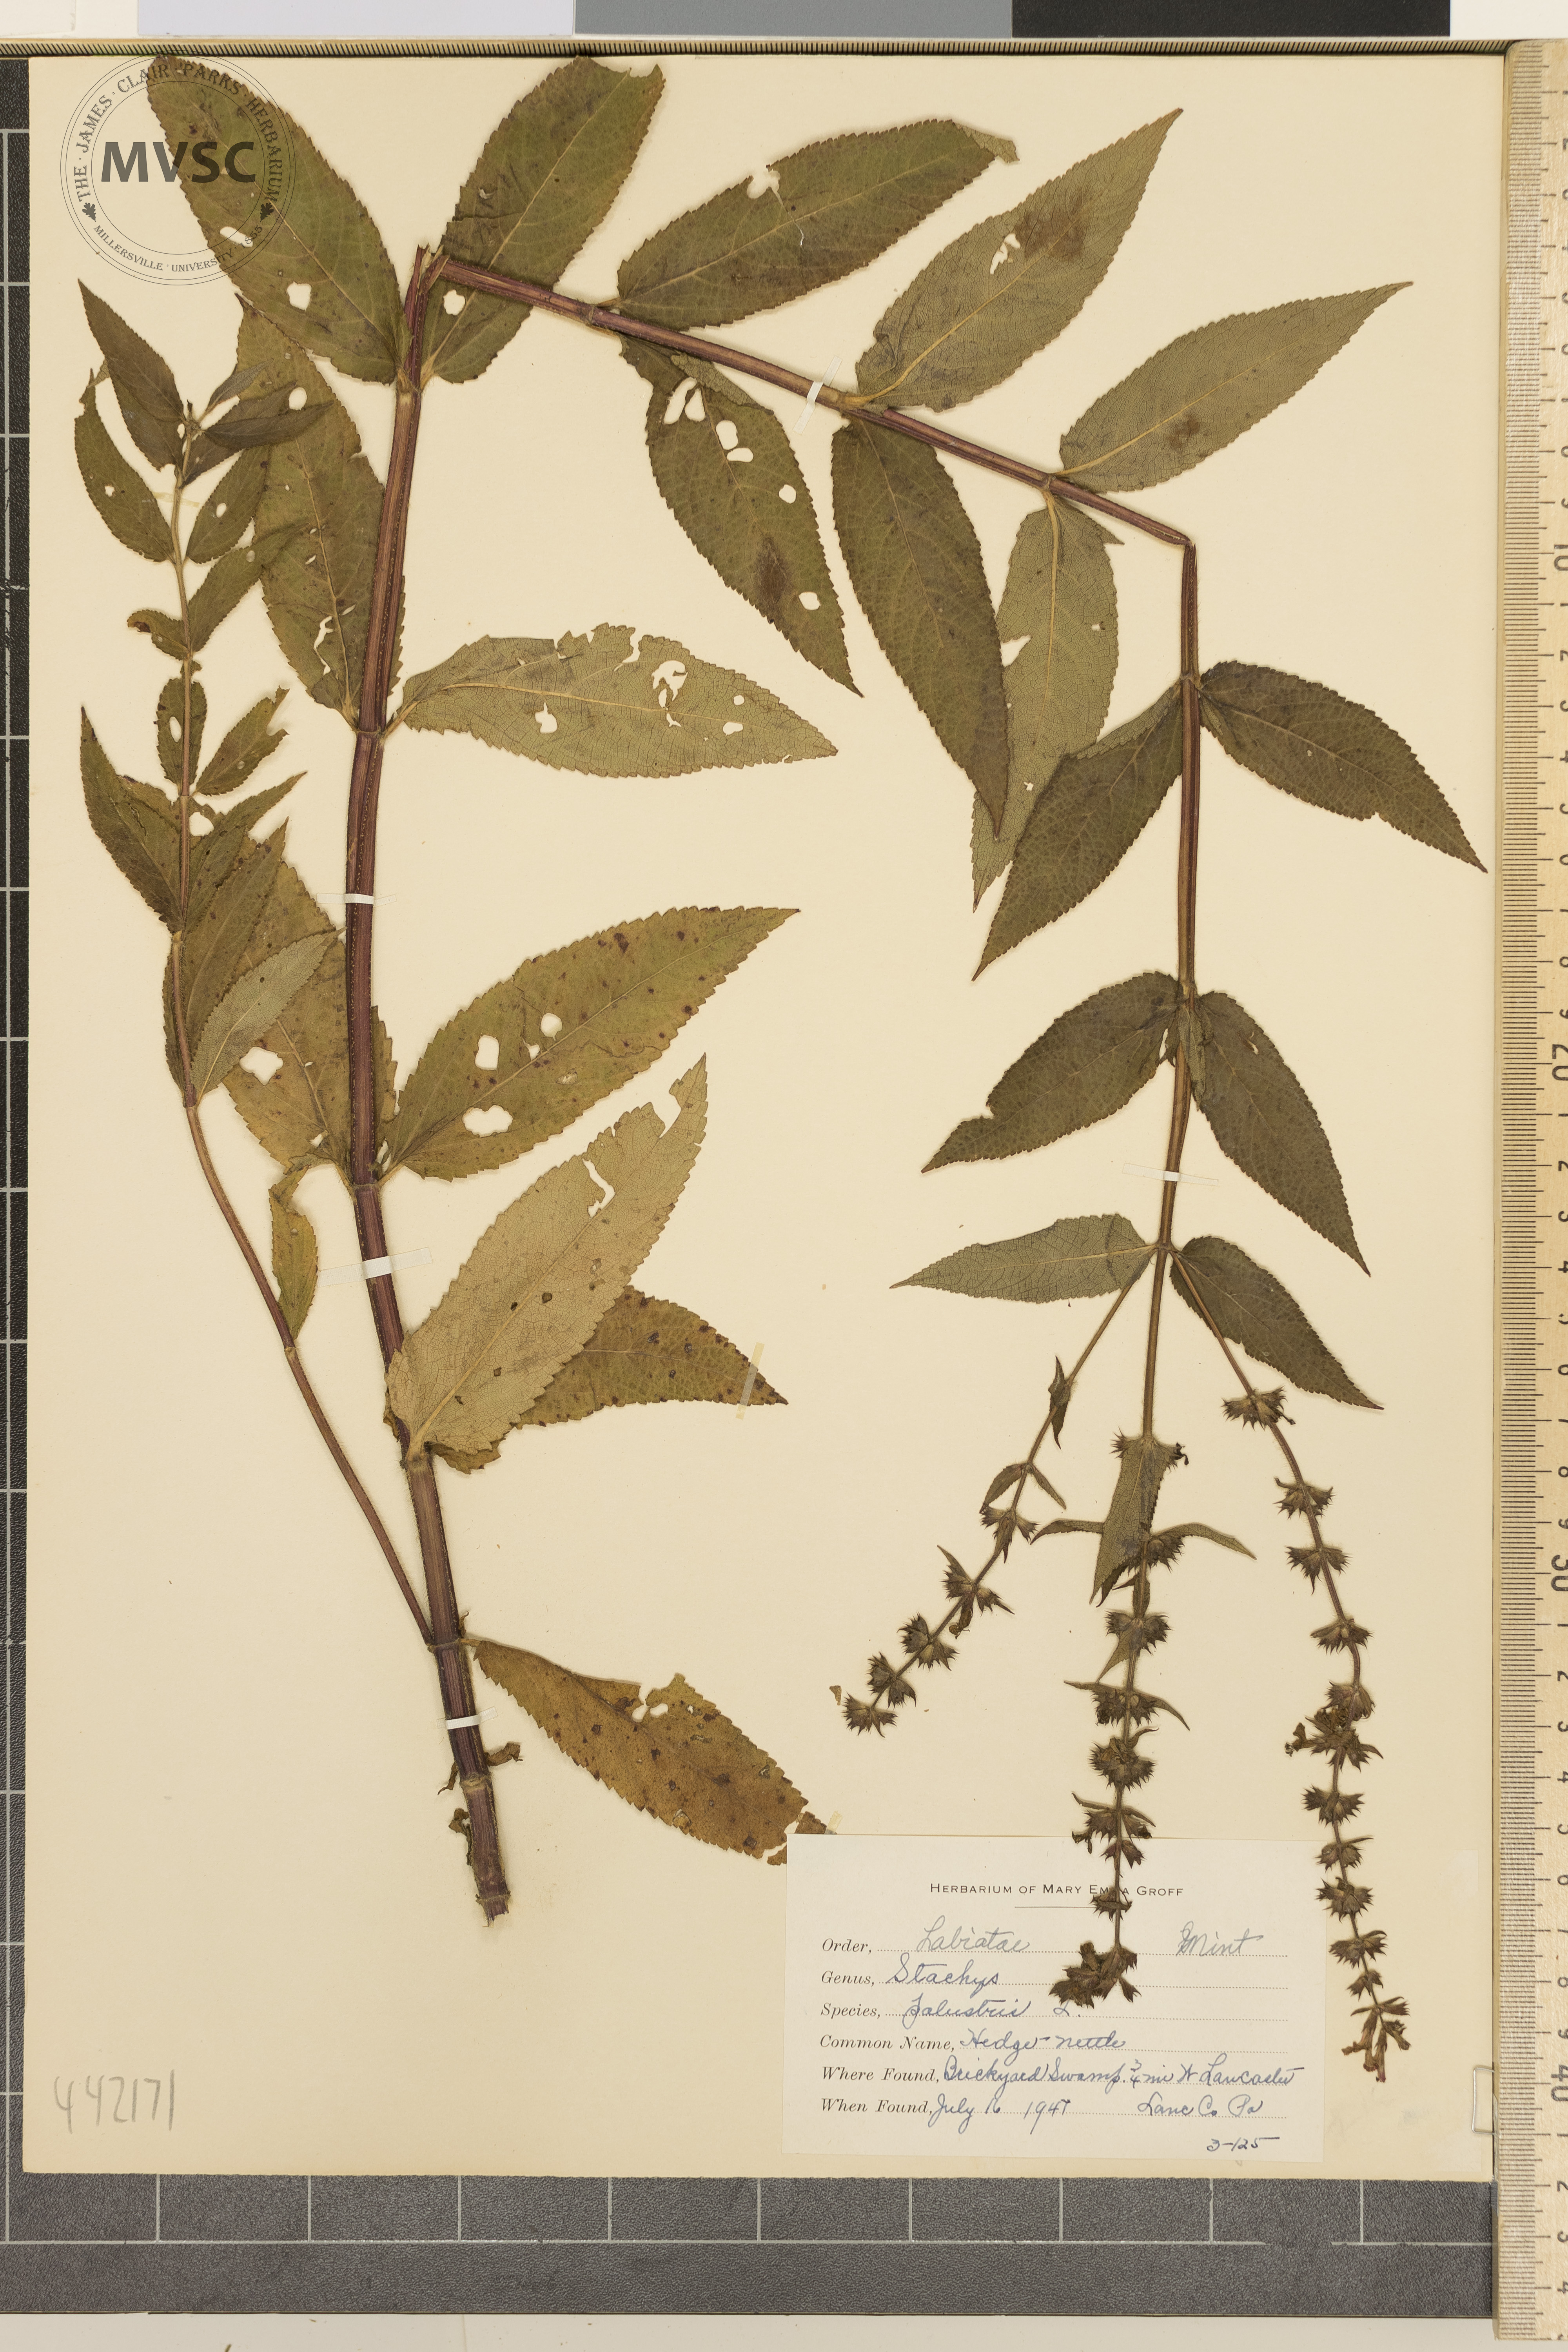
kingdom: Plantae
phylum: Tracheophyta
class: Magnoliopsida
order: Lamiales
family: Lamiaceae
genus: Stachys
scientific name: Stachys palustris
